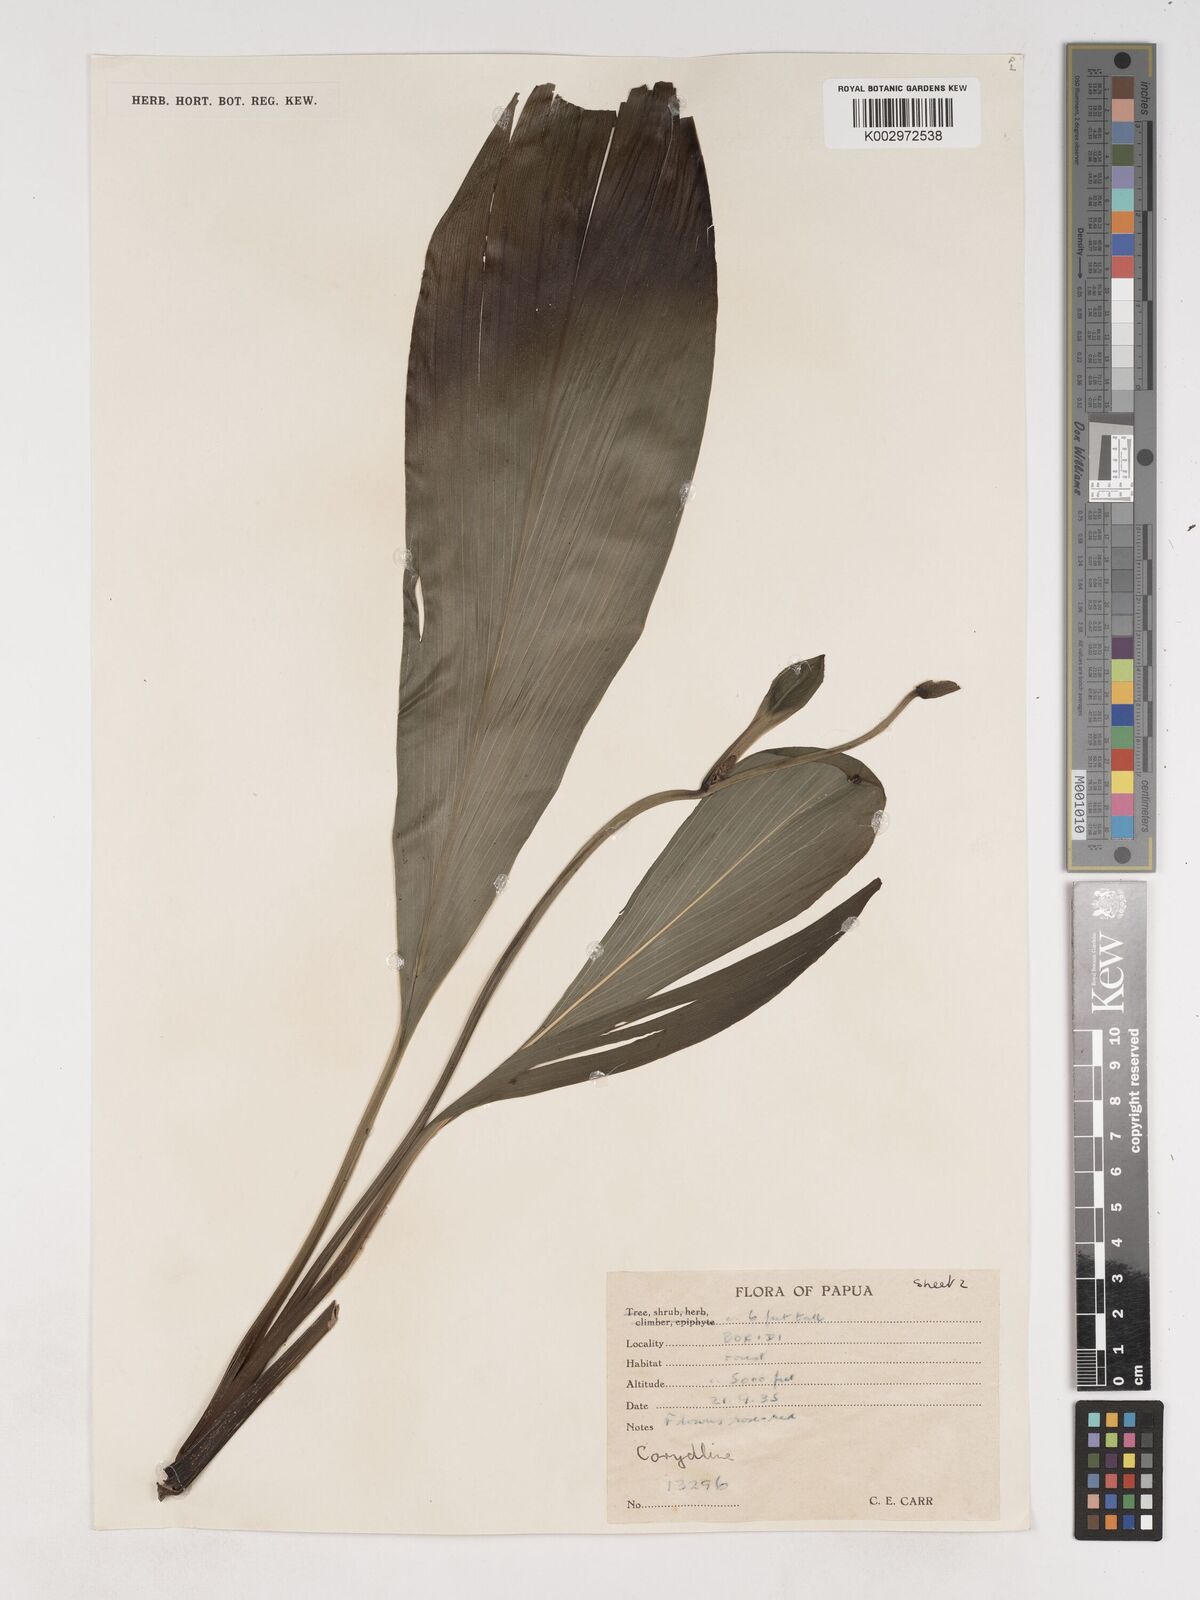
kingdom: Plantae
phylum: Tracheophyta
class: Liliopsida
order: Asparagales
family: Asparagaceae
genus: Cordyline
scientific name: Cordyline
